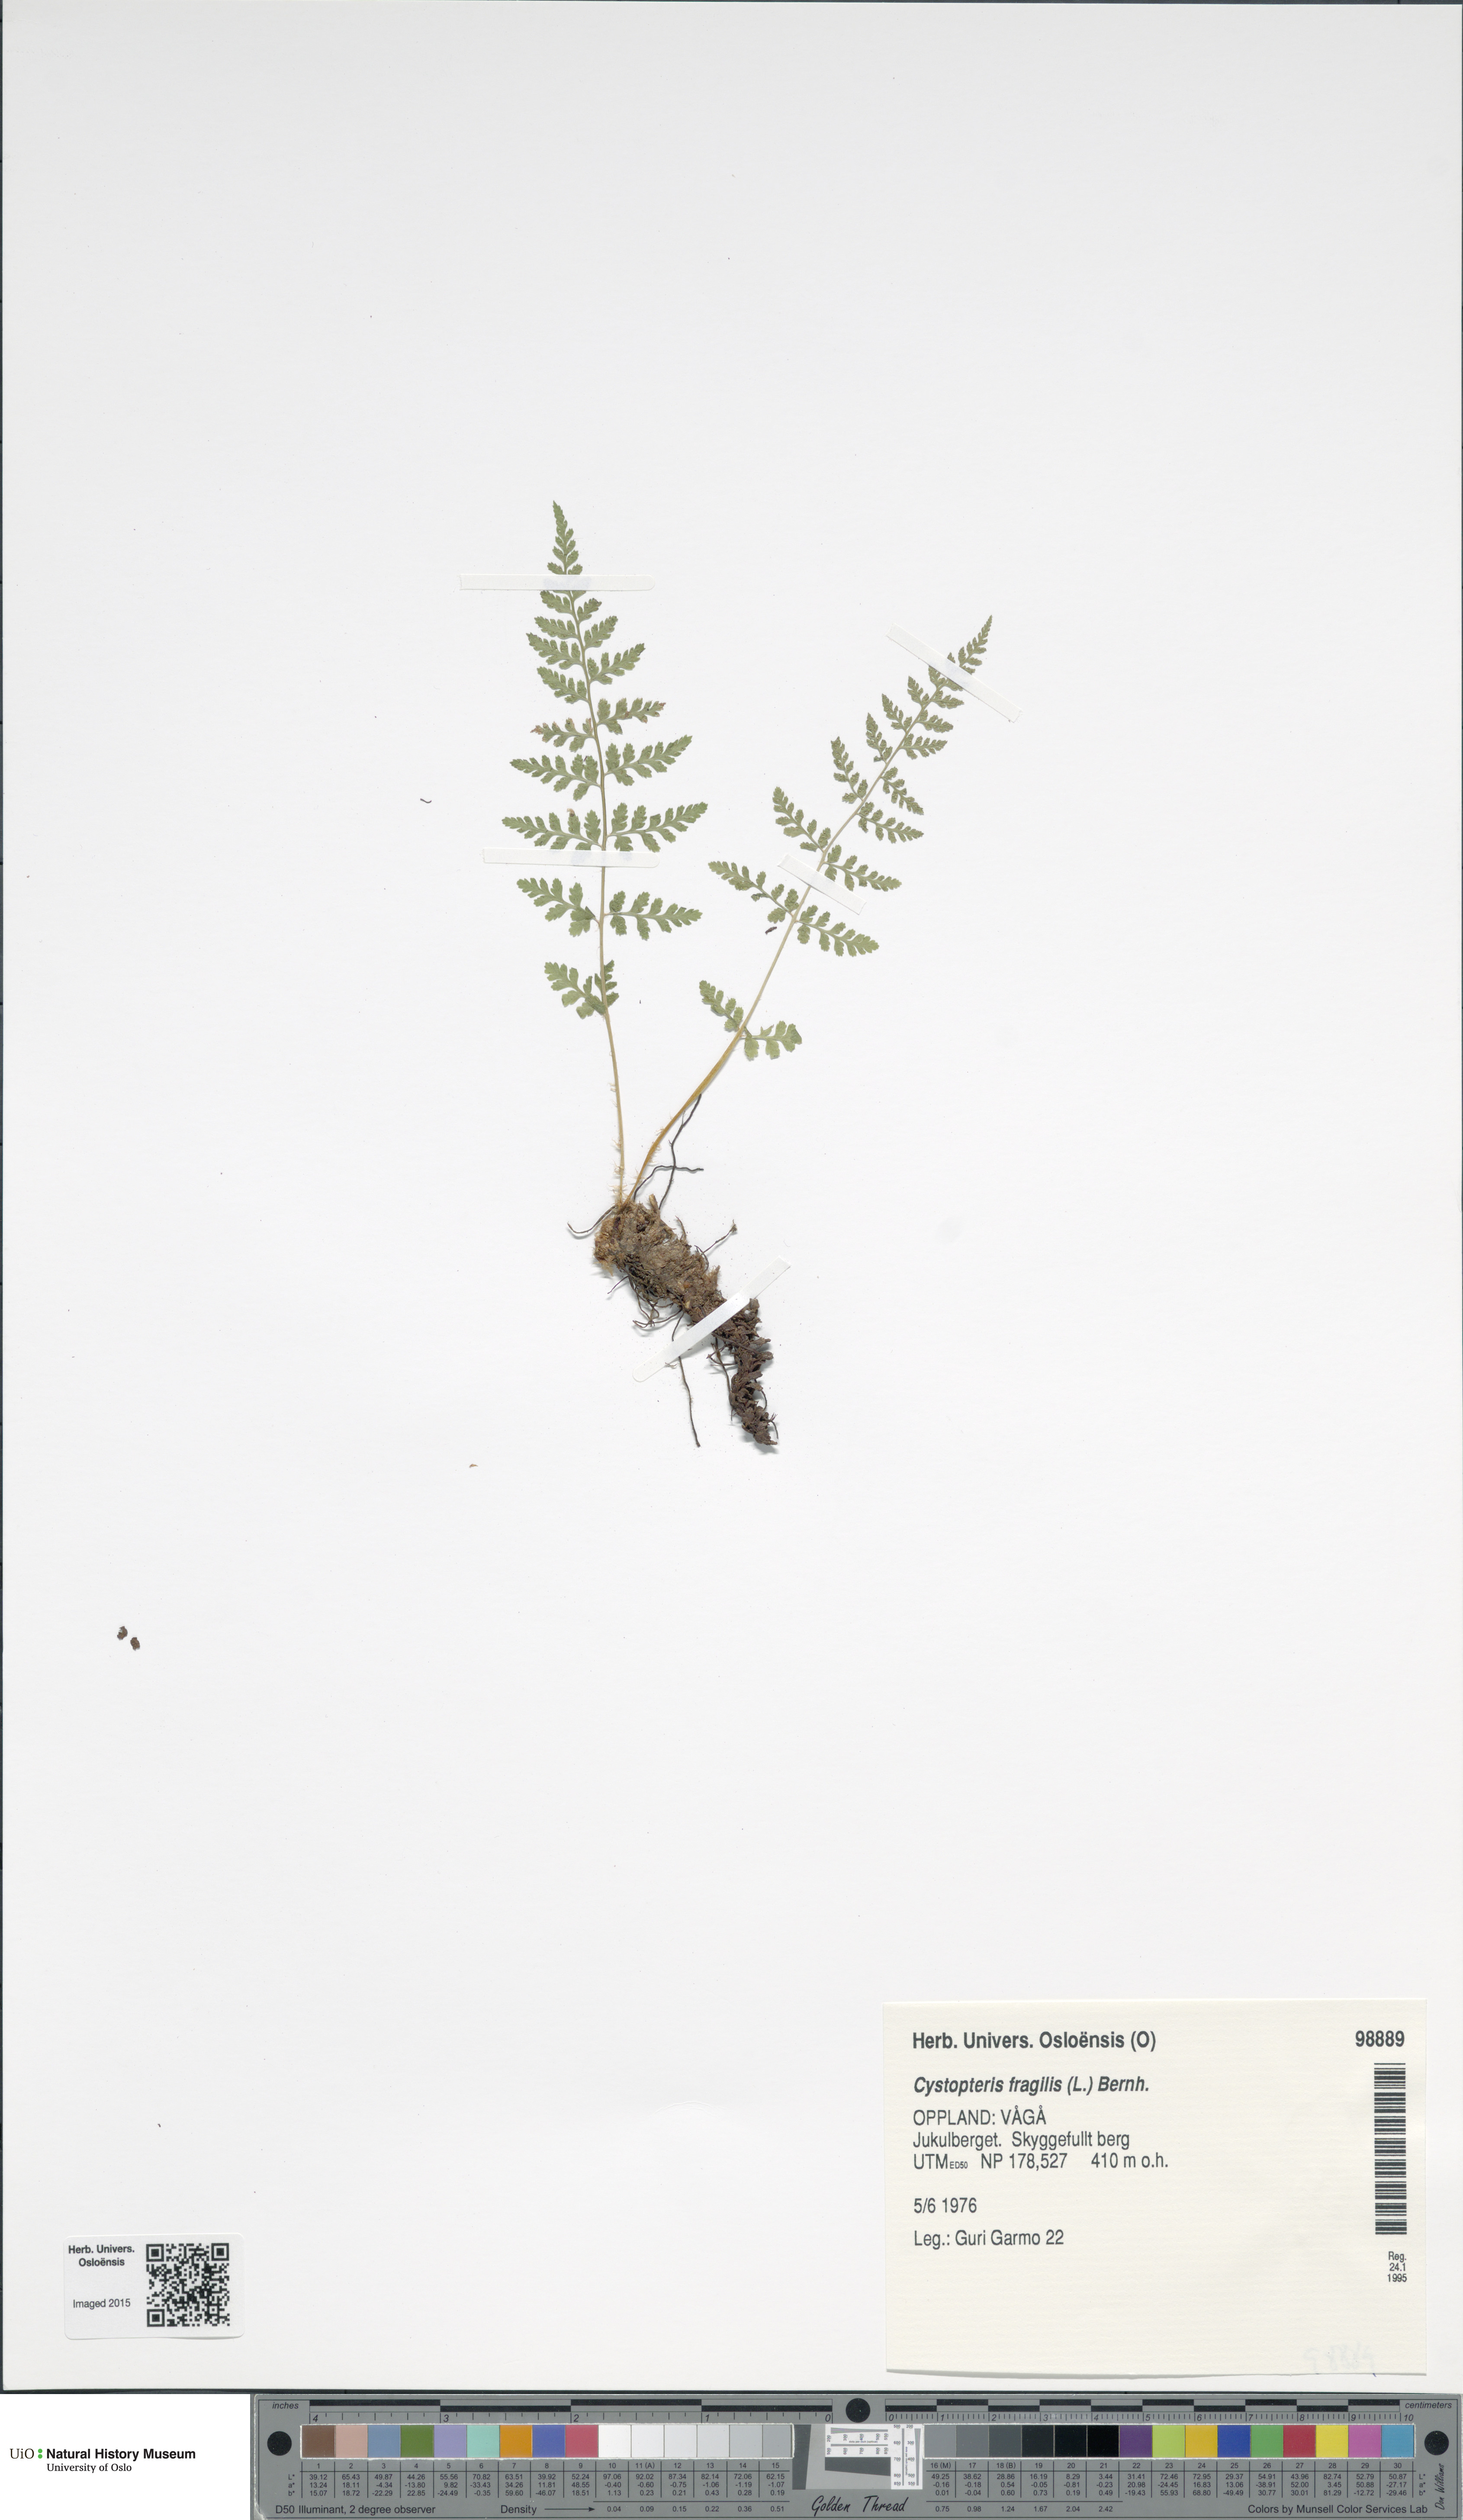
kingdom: Plantae
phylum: Tracheophyta
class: Polypodiopsida
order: Polypodiales
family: Cystopteridaceae
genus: Cystopteris
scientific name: Cystopteris fragilis
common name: Brittle bladder fern
